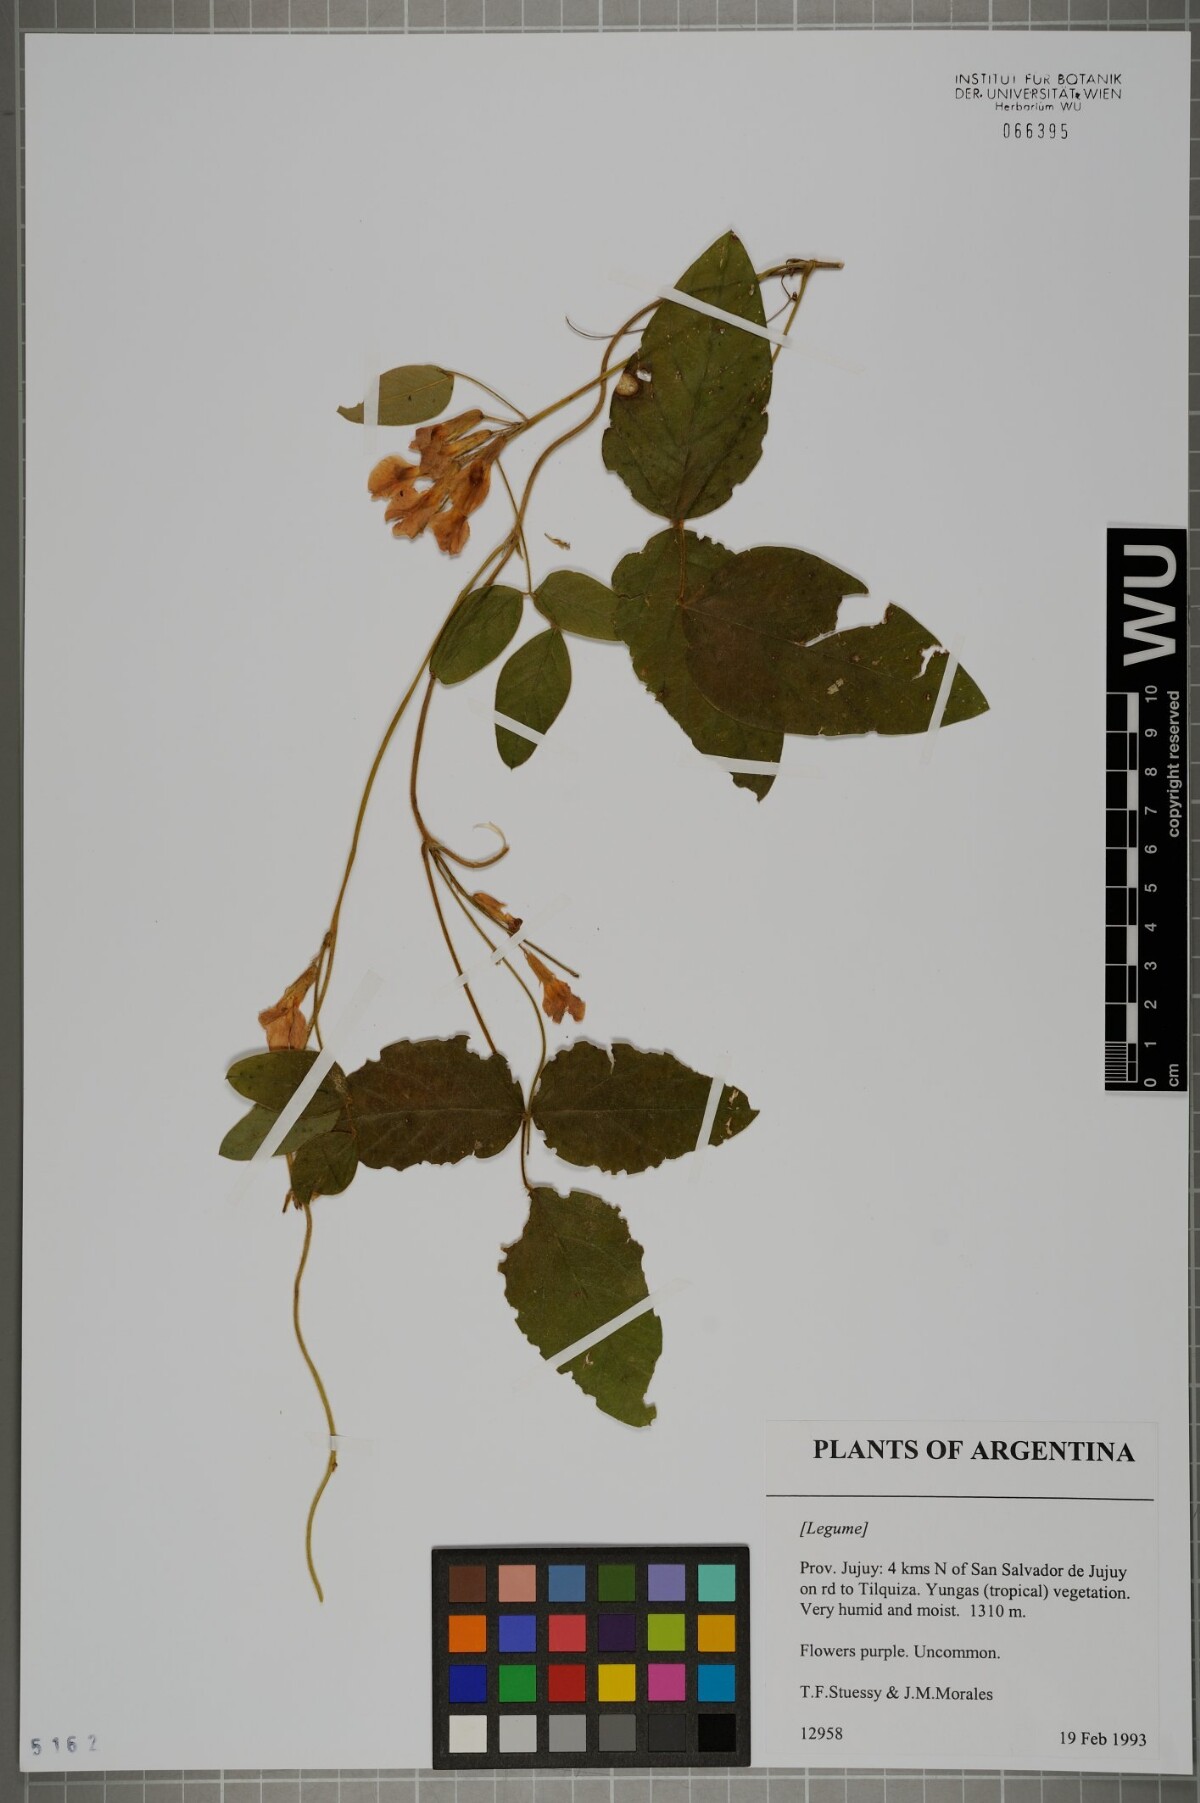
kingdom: Plantae
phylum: Tracheophyta
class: Magnoliopsida
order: Fabales
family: Fabaceae
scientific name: Fabaceae
